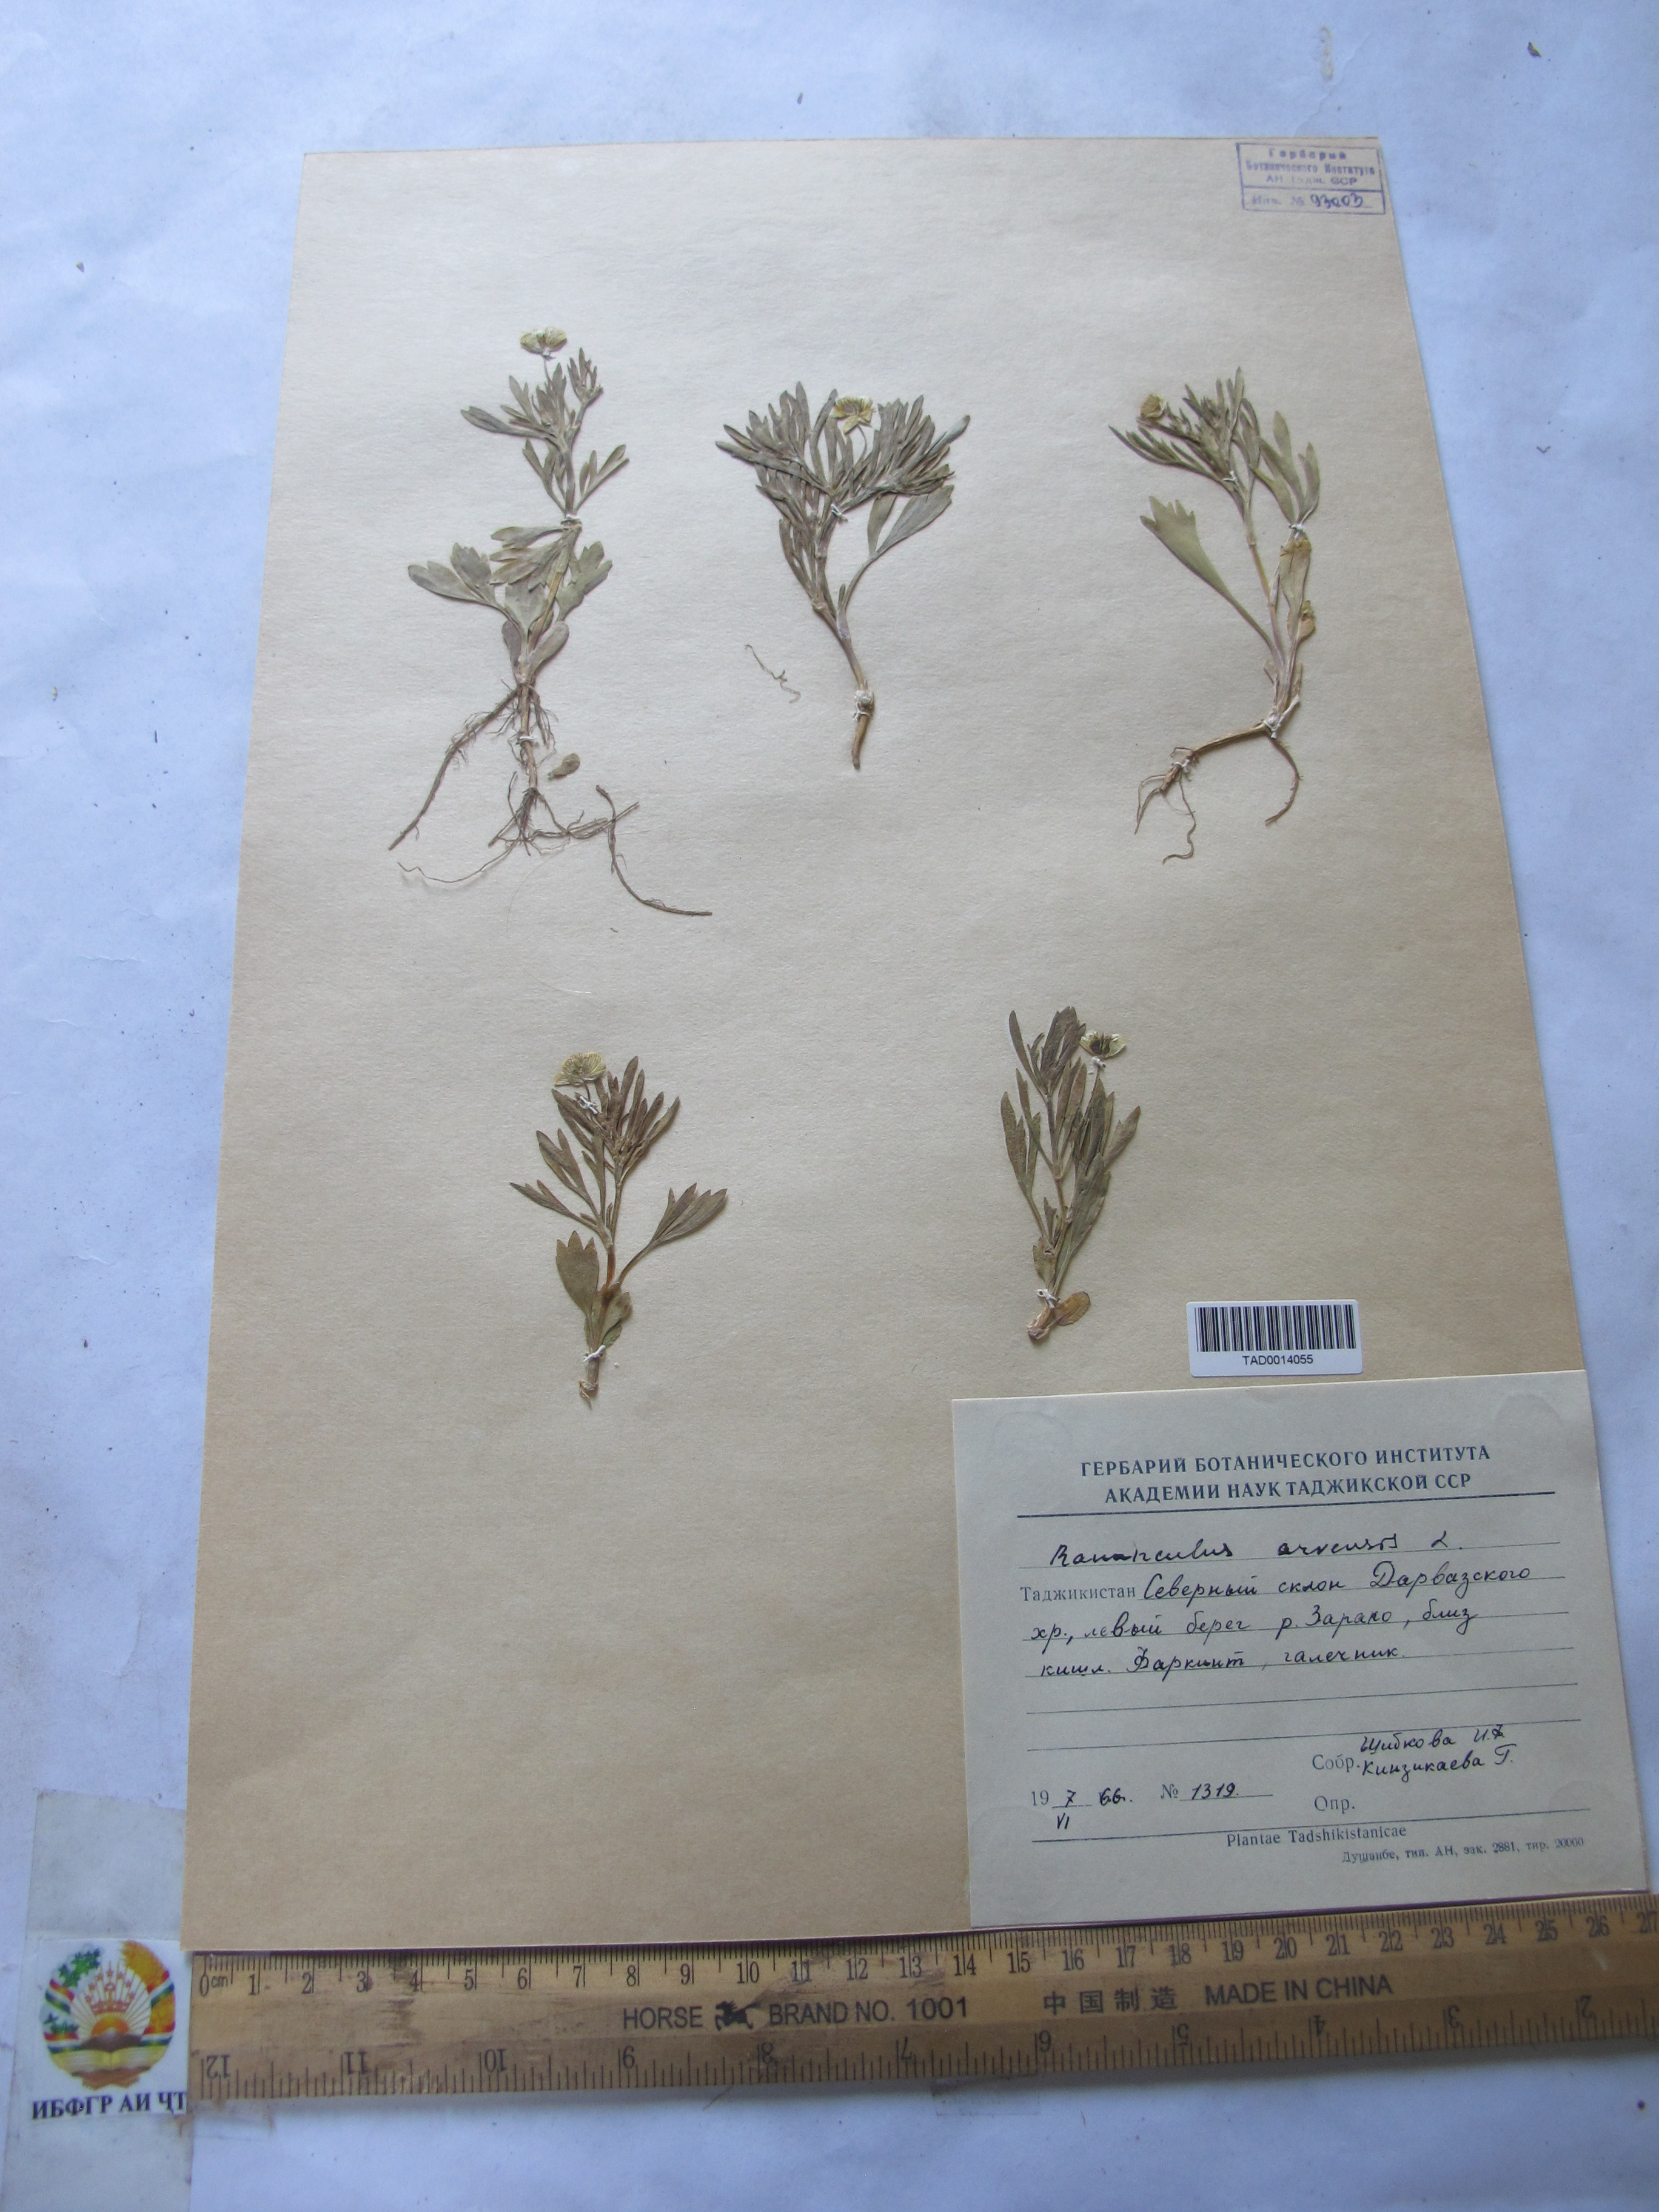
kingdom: Plantae
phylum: Tracheophyta
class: Magnoliopsida
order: Ranunculales
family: Ranunculaceae
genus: Ranunculus
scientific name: Ranunculus arvensis
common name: Corn buttercup
